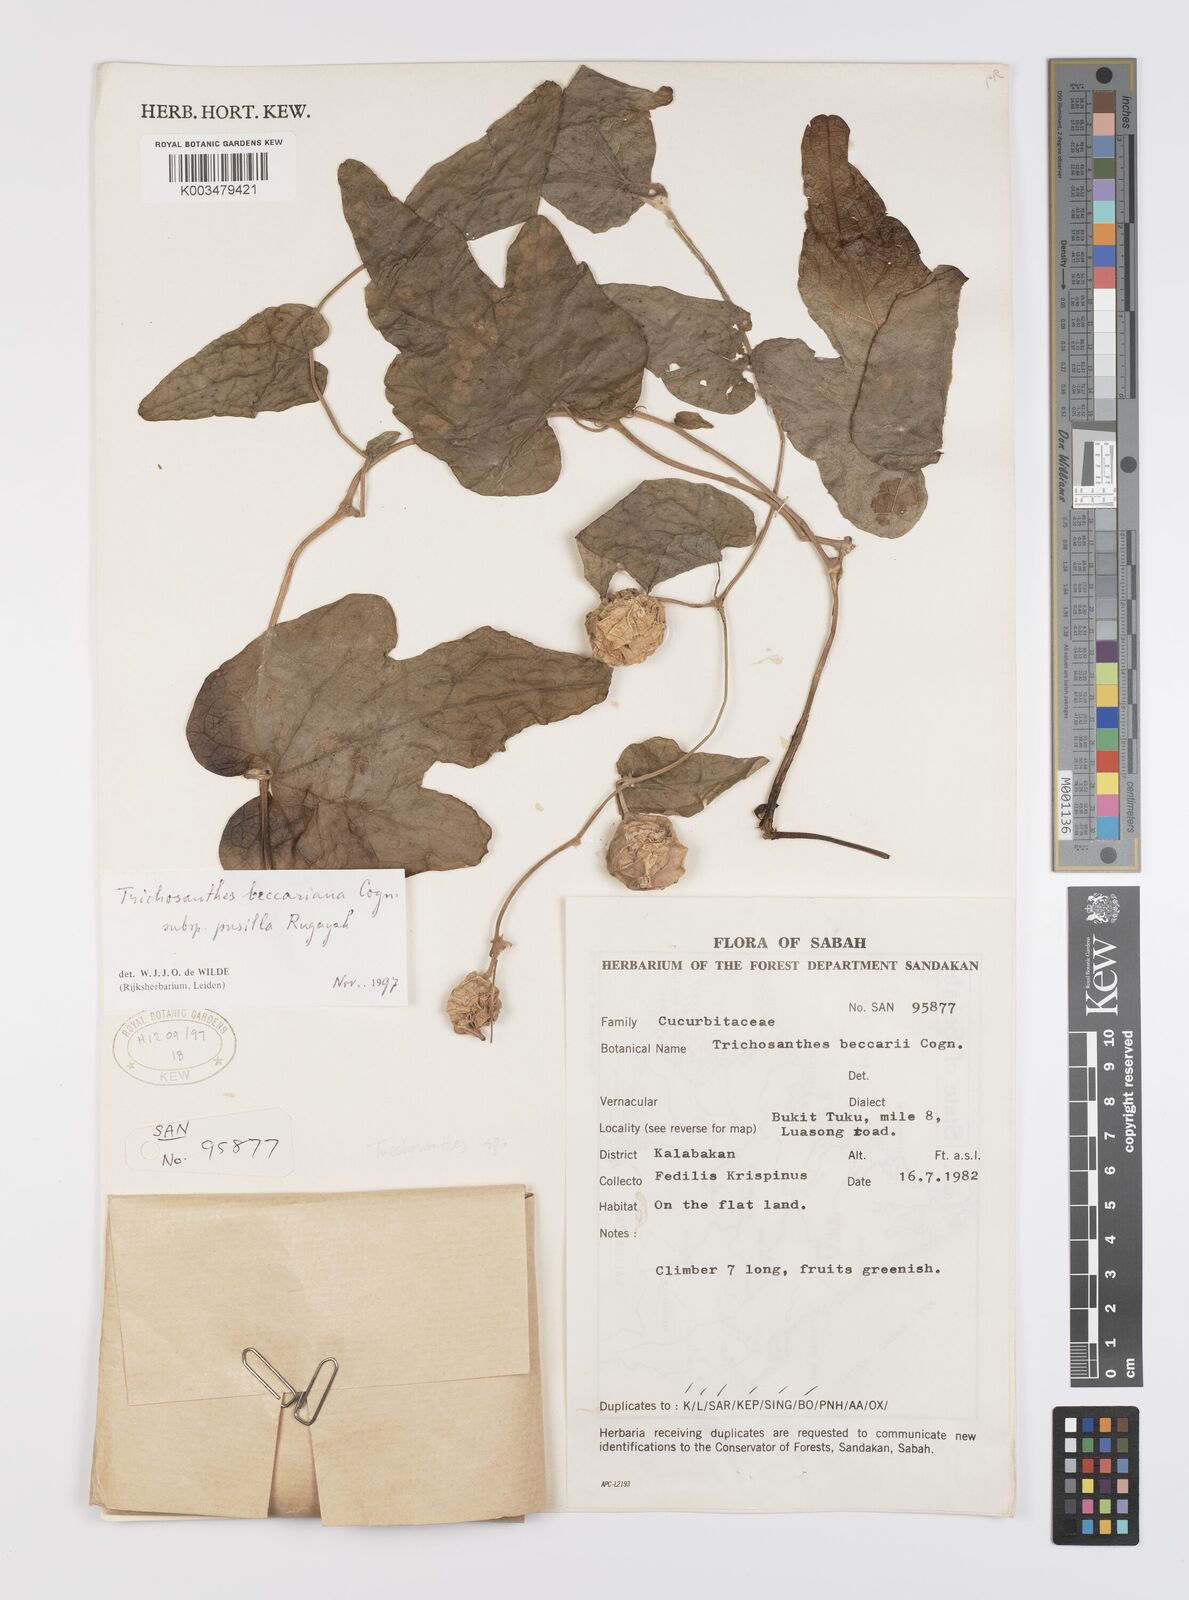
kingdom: Plantae
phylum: Tracheophyta
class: Magnoliopsida
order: Cucurbitales
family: Cucurbitaceae
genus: Trichosanthes
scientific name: Trichosanthes beccariana
